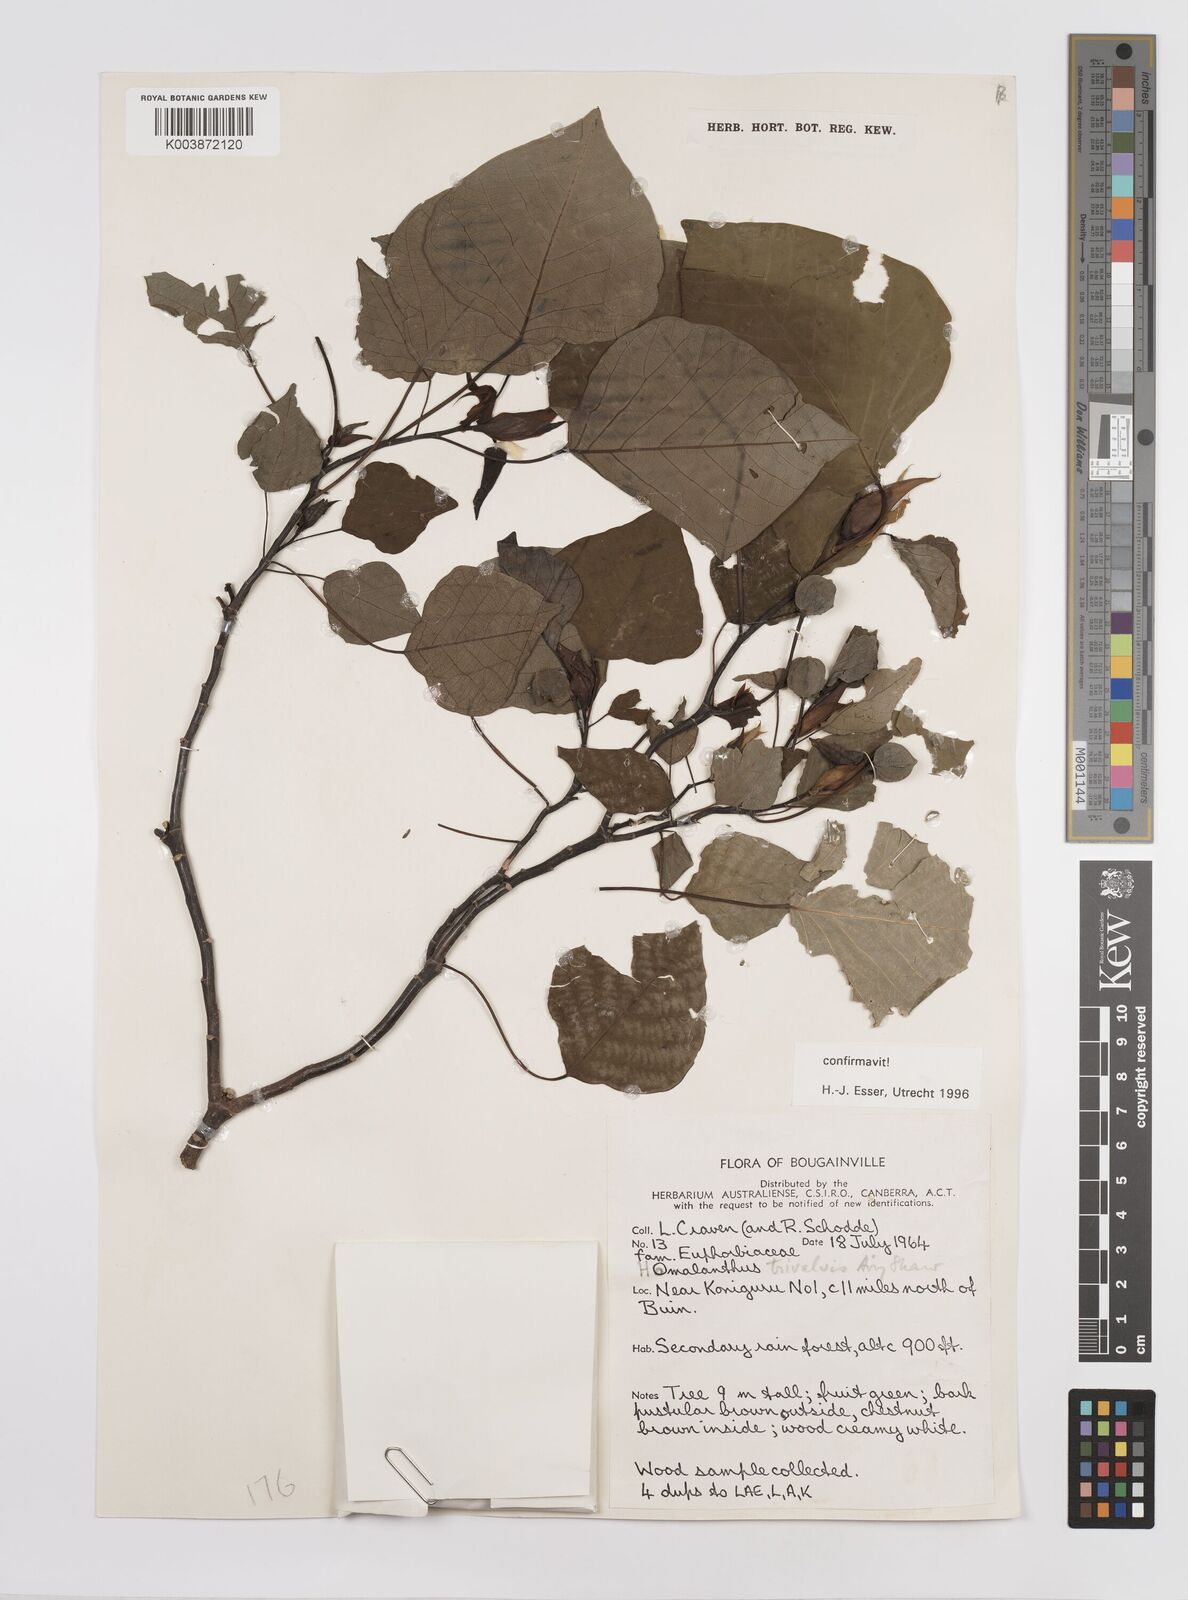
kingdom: Plantae
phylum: Tracheophyta
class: Magnoliopsida
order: Malpighiales
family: Euphorbiaceae
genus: Homalanthus
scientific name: Homalanthus trivalvis
